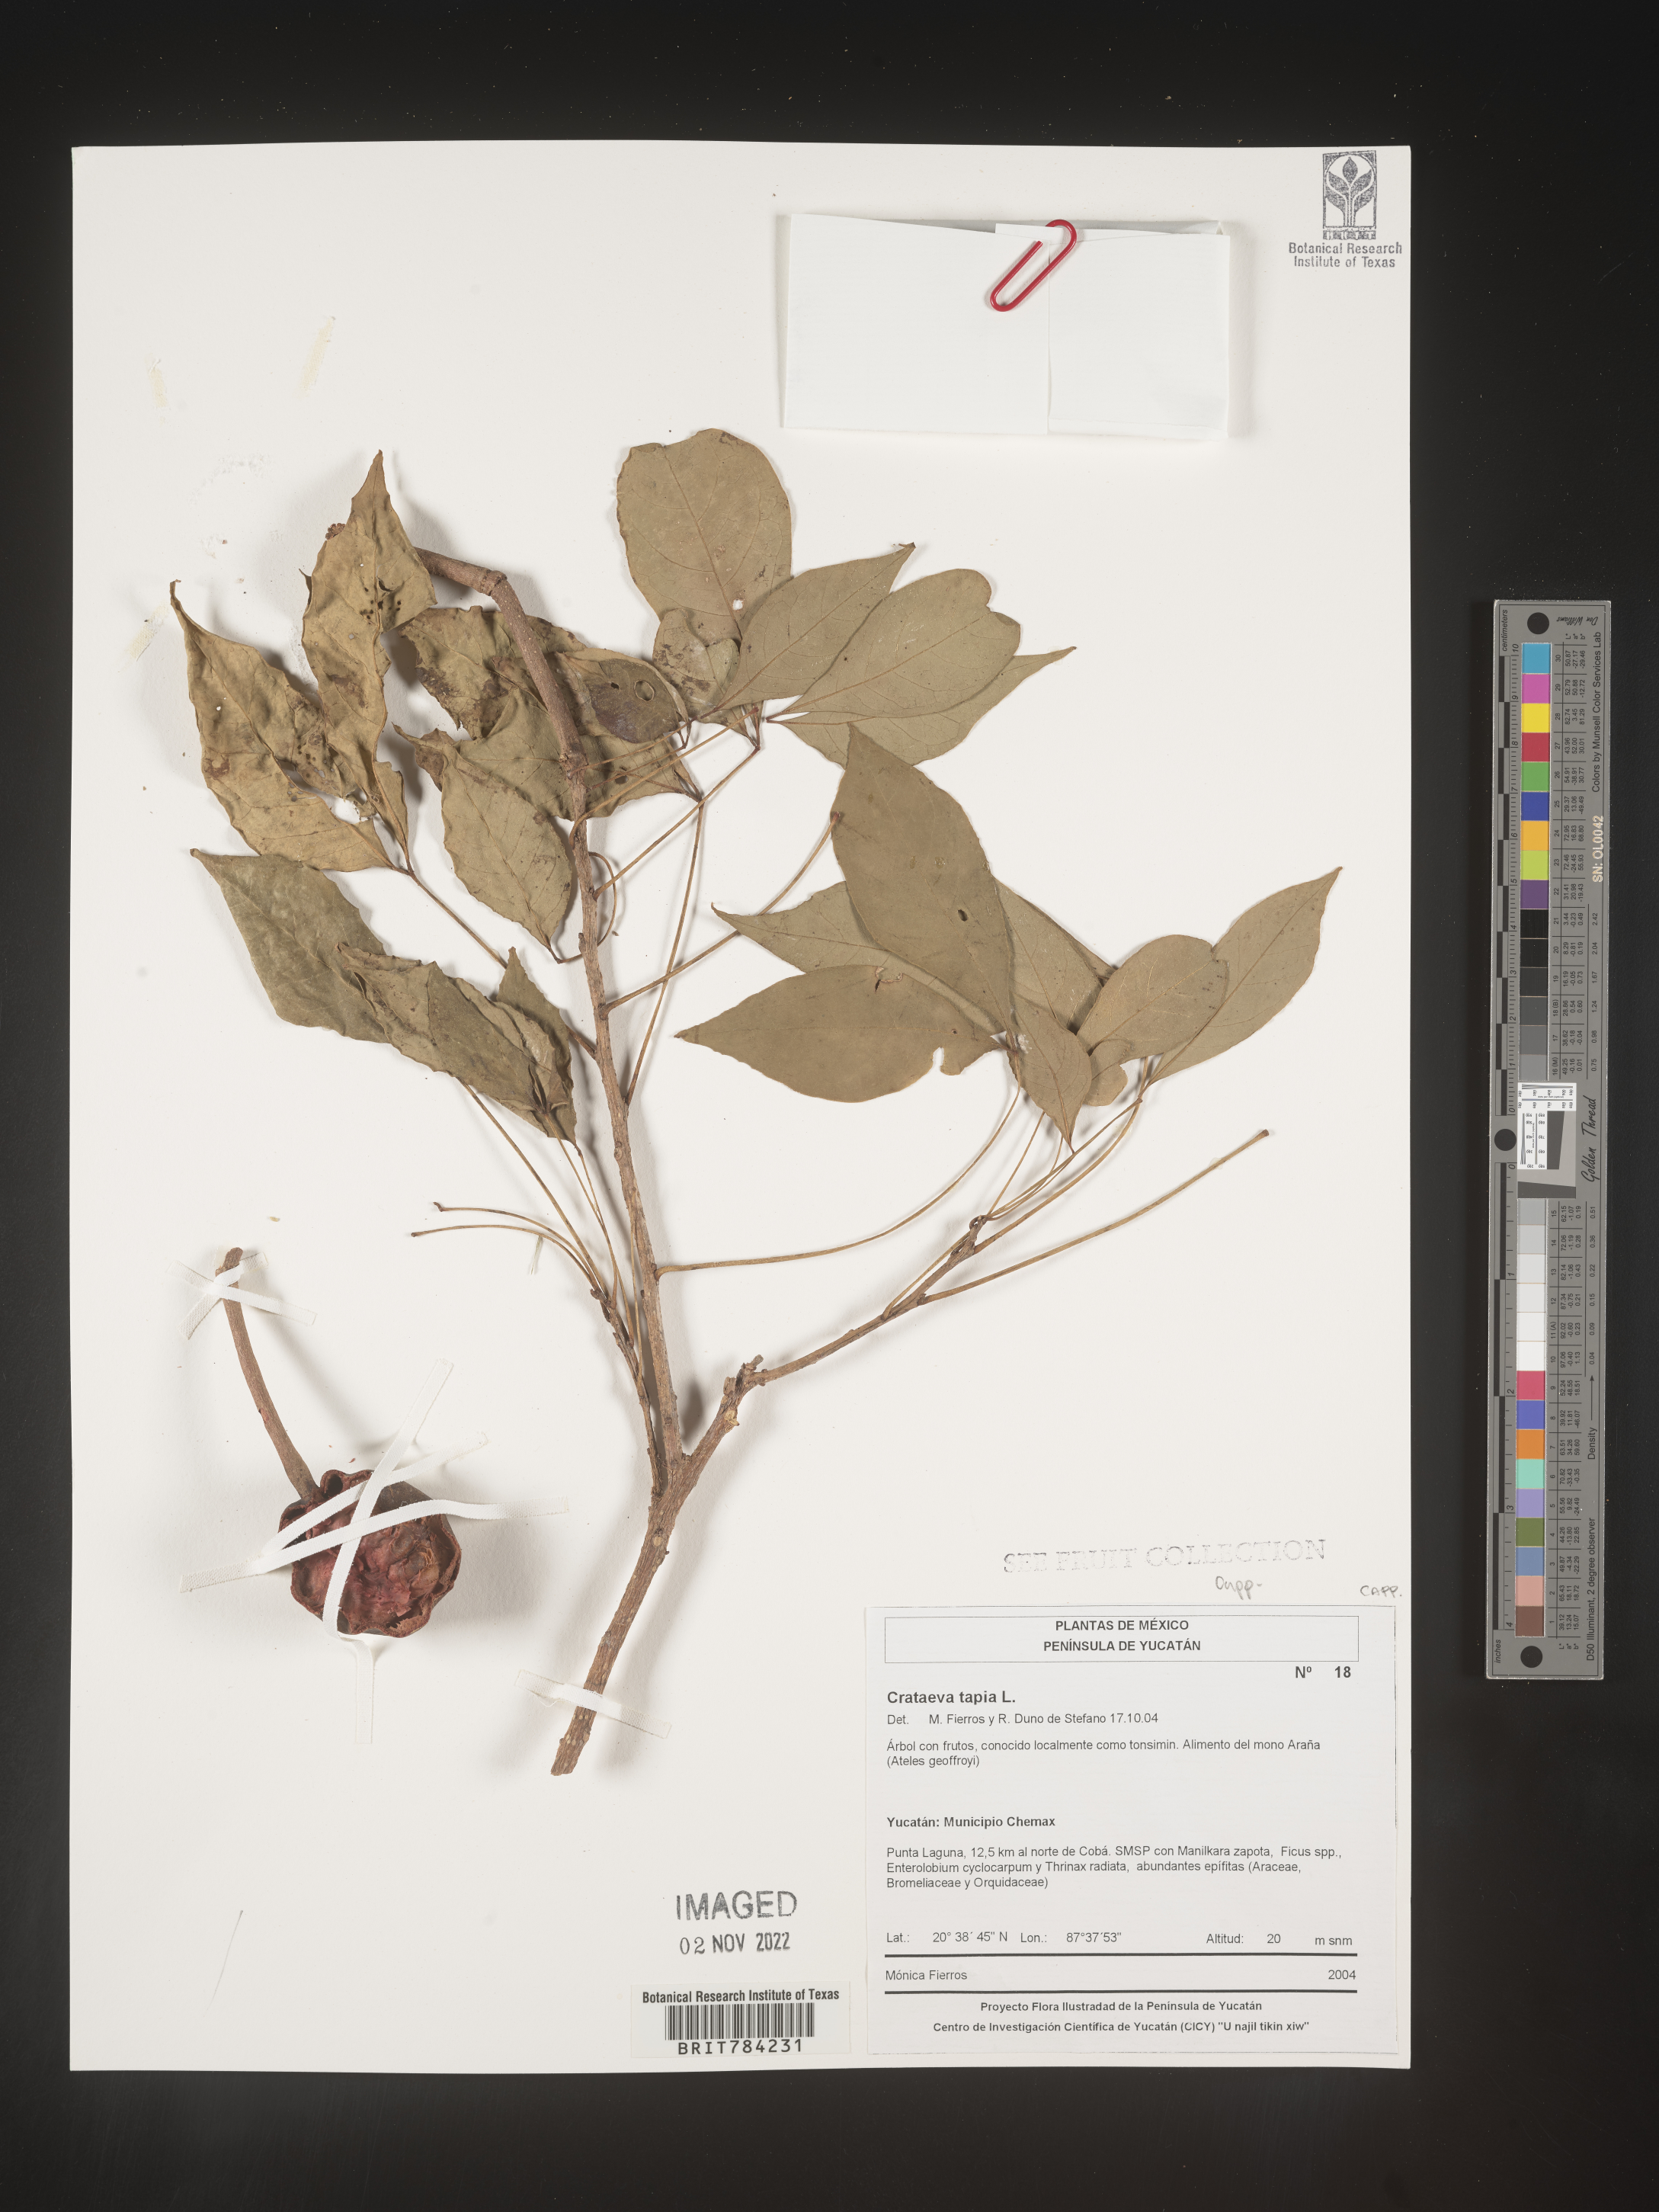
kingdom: Plantae
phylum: Tracheophyta
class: Magnoliopsida
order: Brassicales
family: Capparaceae
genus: Crateva
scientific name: Crateva
